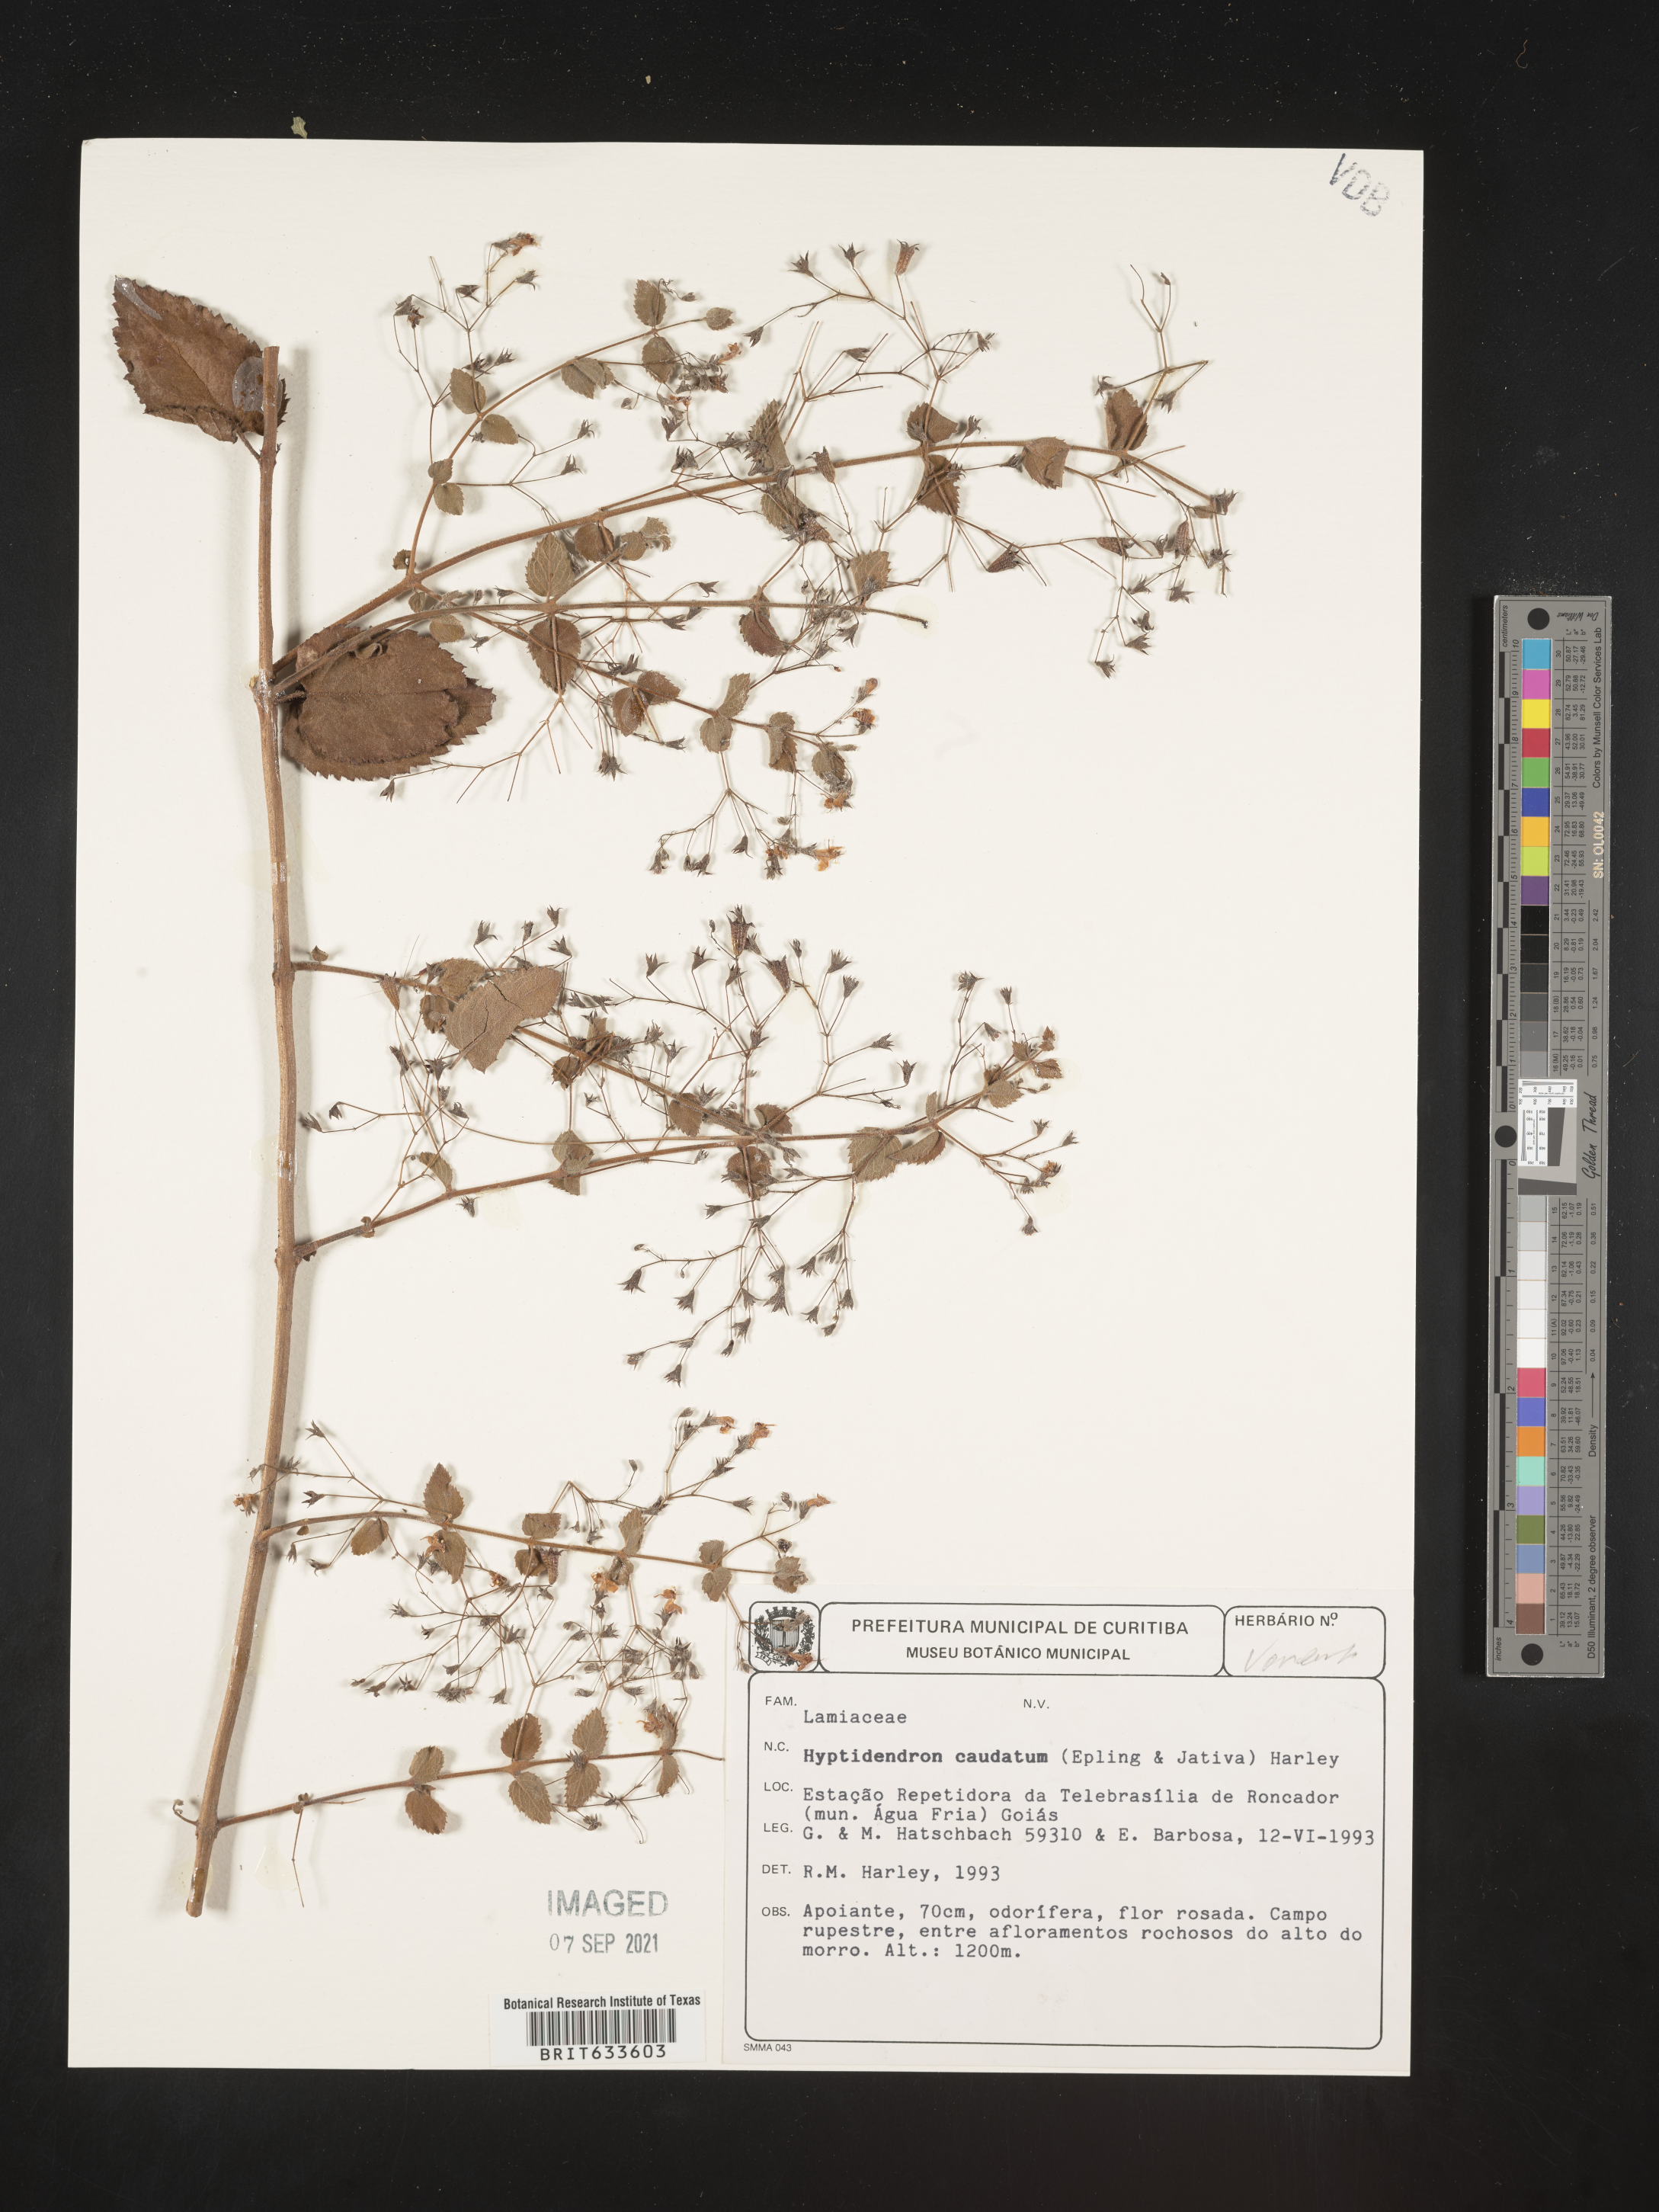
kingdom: Plantae
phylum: Tracheophyta
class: Magnoliopsida
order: Lamiales
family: Lamiaceae
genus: Hyptidendron
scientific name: Hyptidendron
